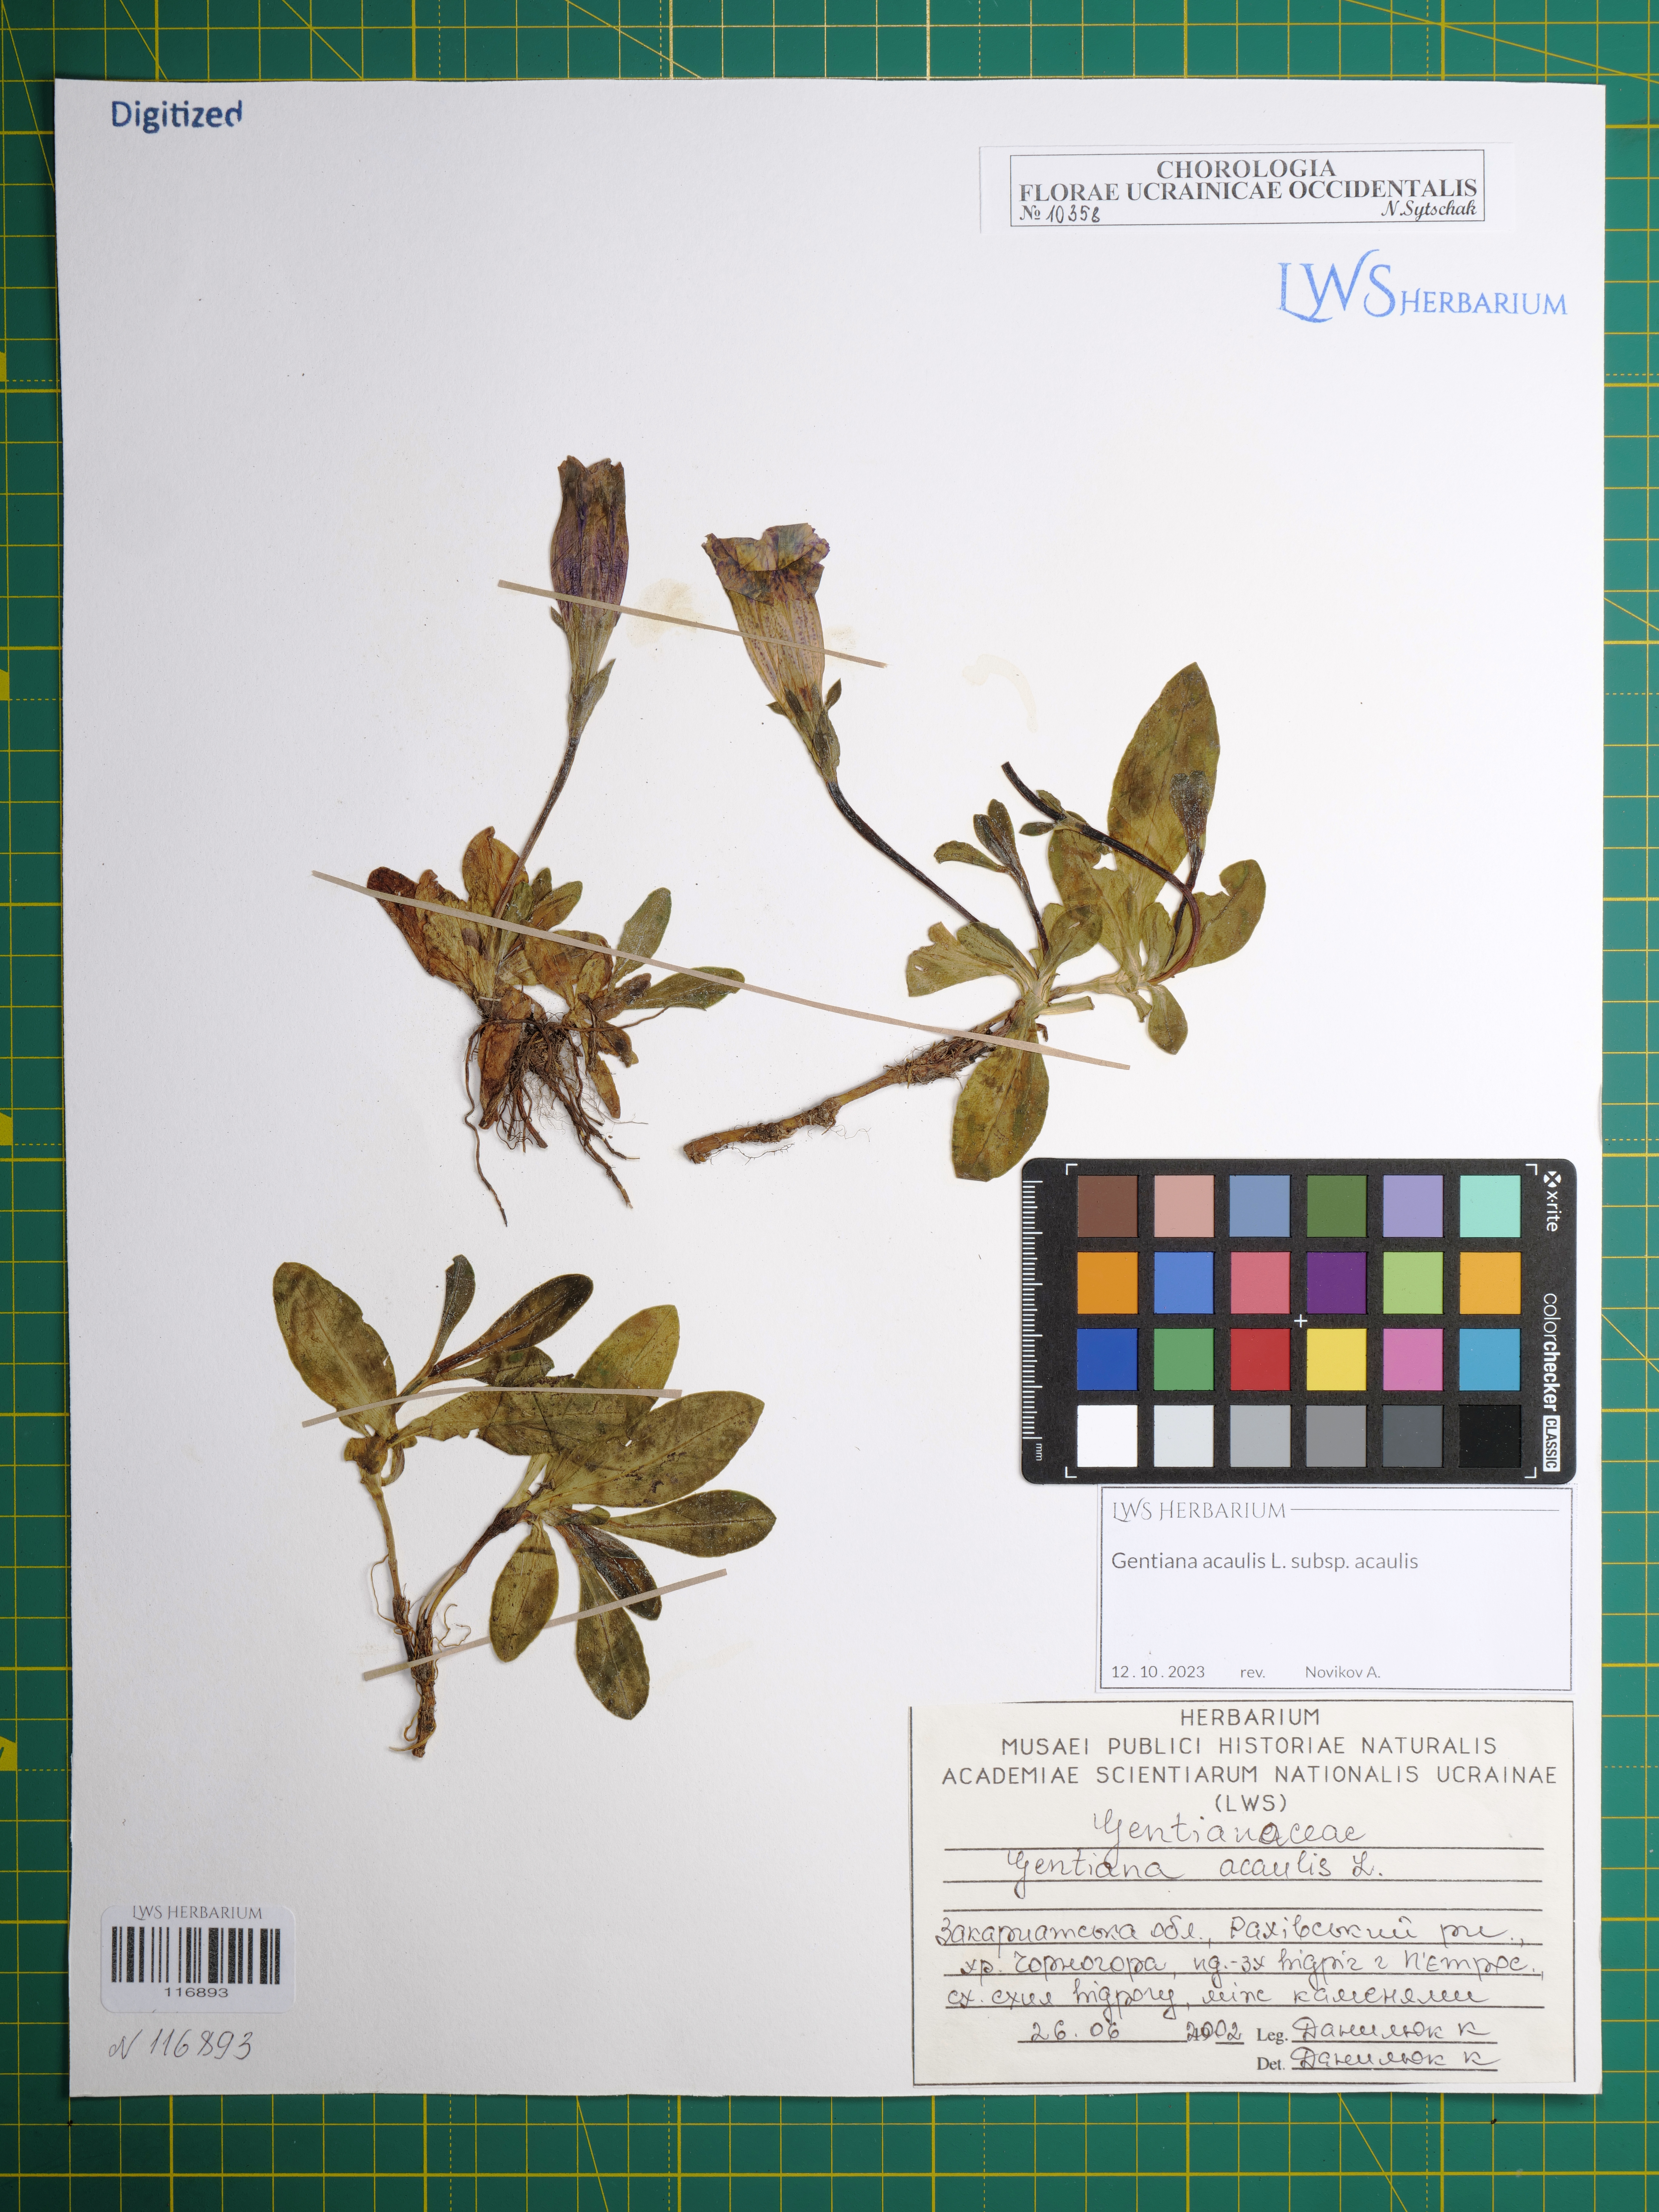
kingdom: Plantae
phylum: Tracheophyta
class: Magnoliopsida
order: Gentianales
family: Gentianaceae
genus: Gentiana
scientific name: Gentiana acaulis
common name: Trumpet gentian
